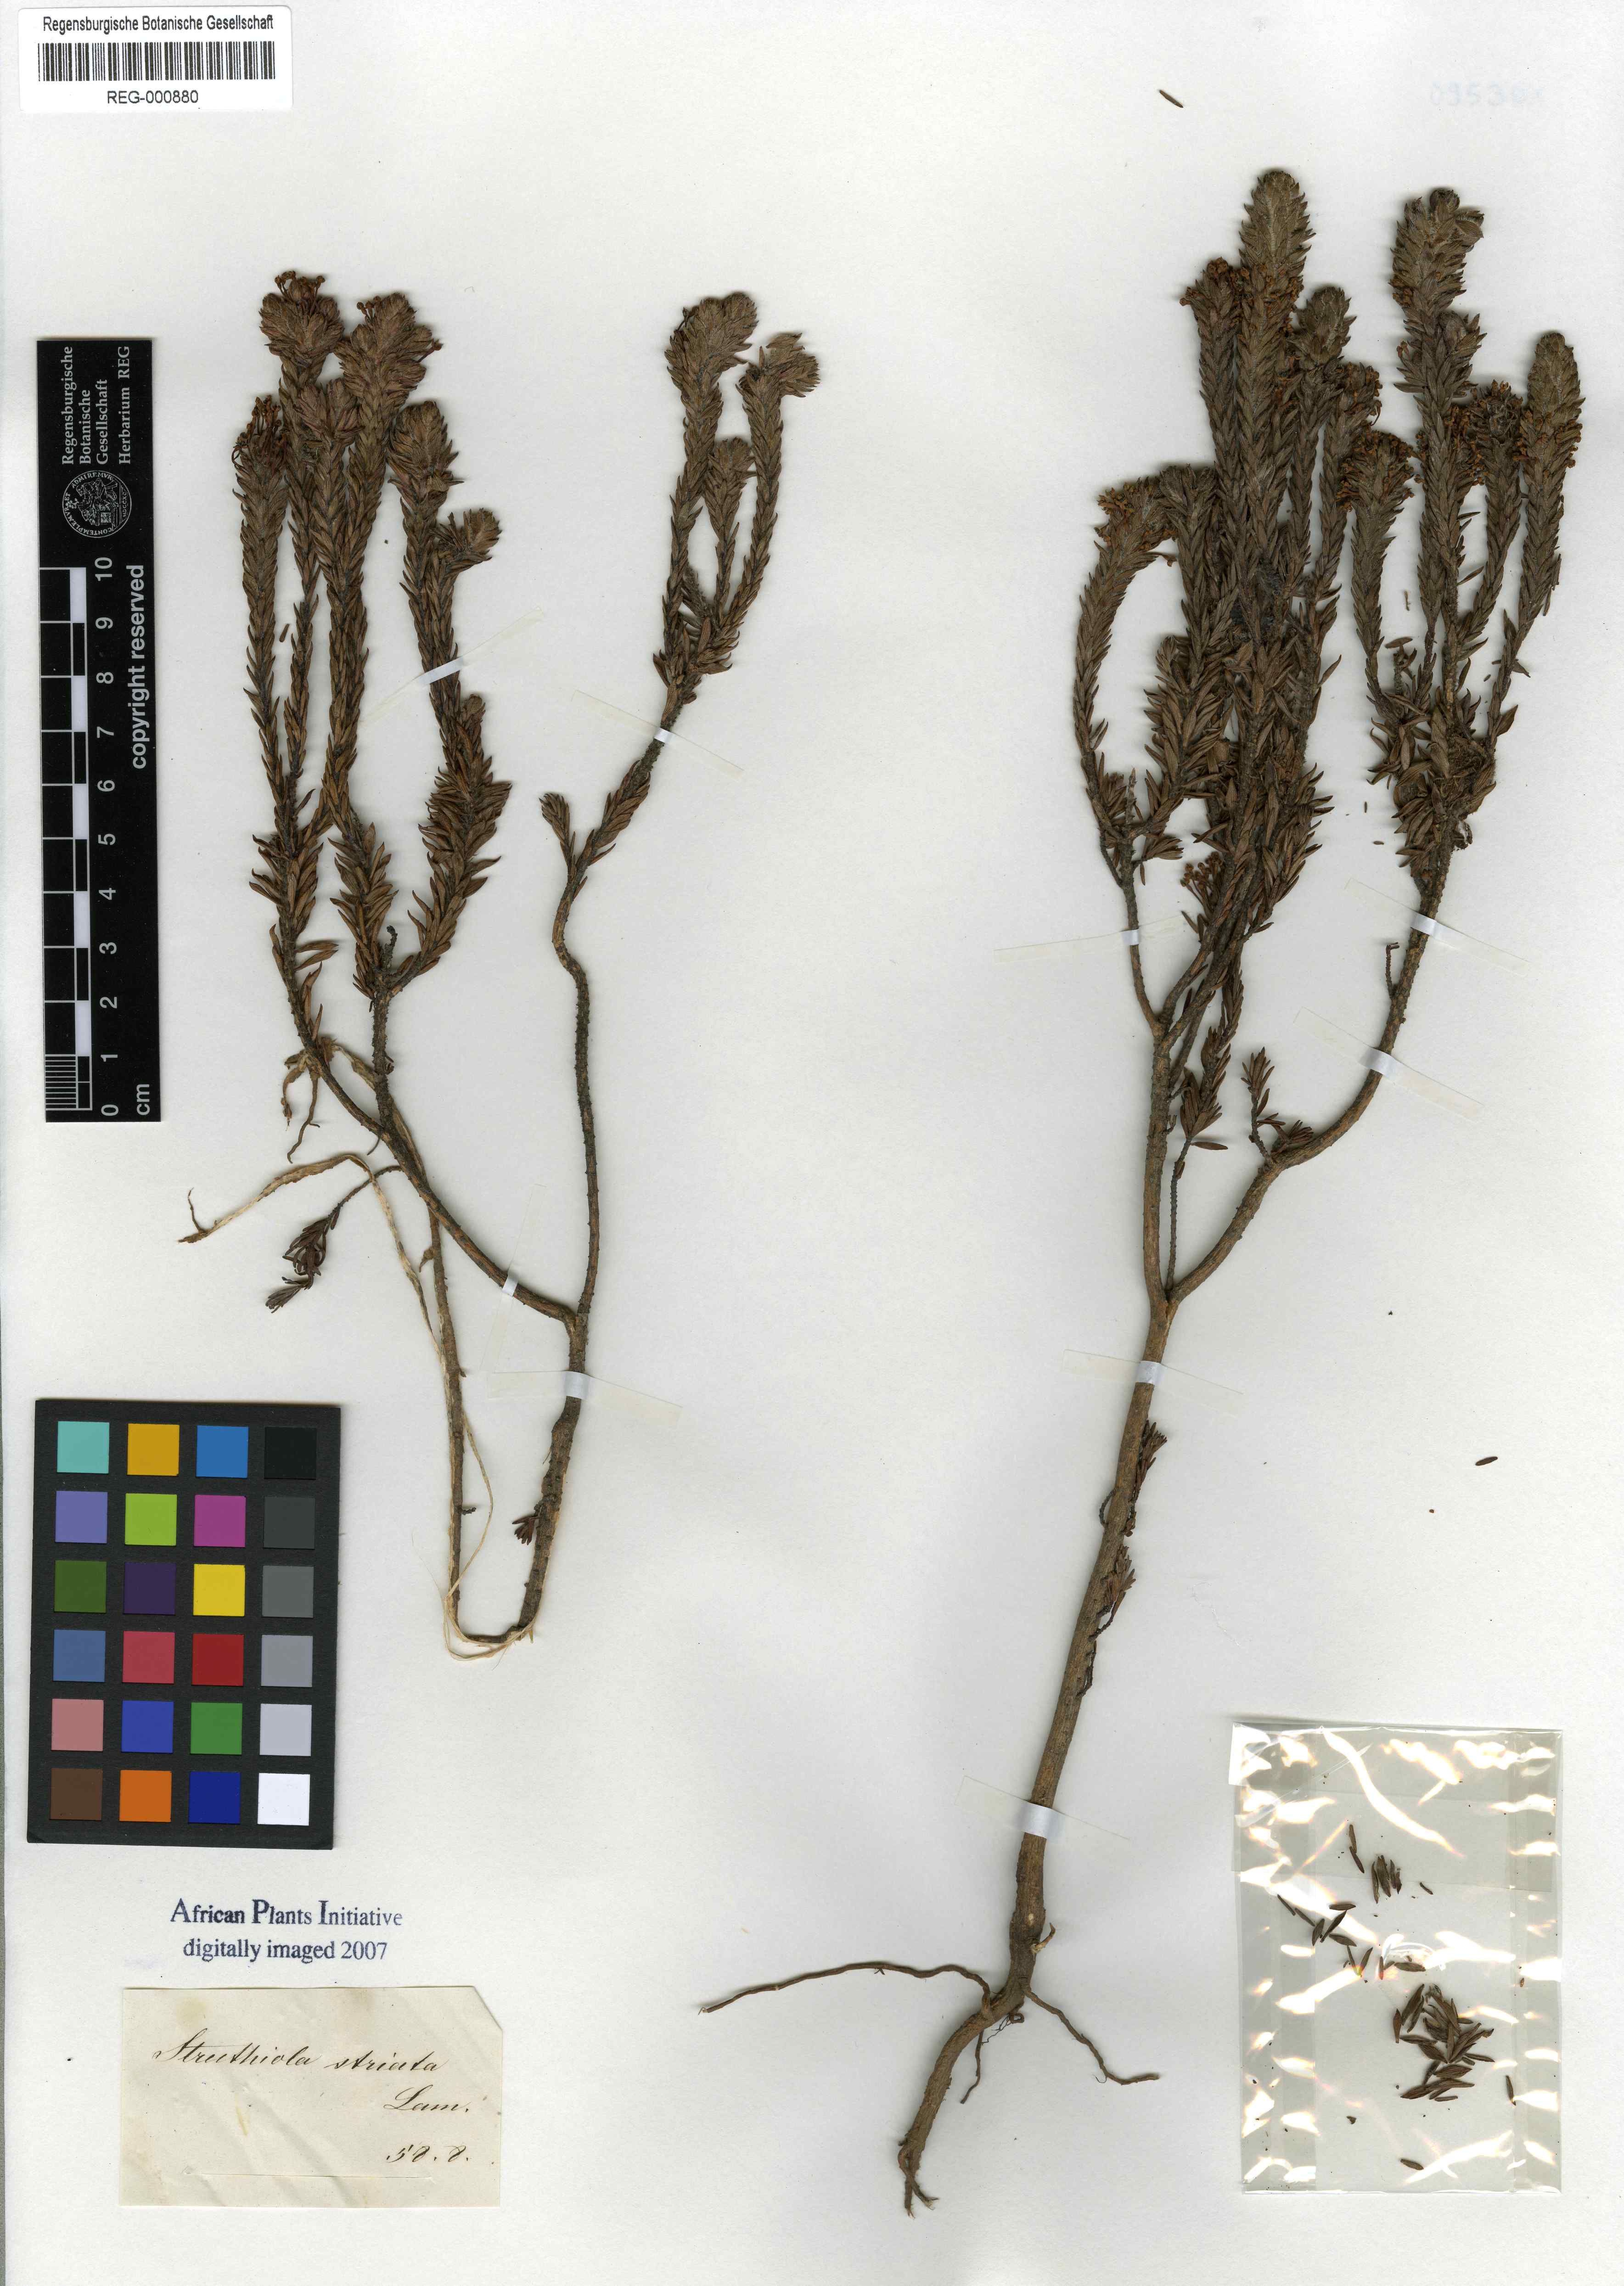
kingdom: Plantae
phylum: Tracheophyta
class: Magnoliopsida
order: Malvales
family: Thymelaeaceae
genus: Struthiola
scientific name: Struthiola striata
